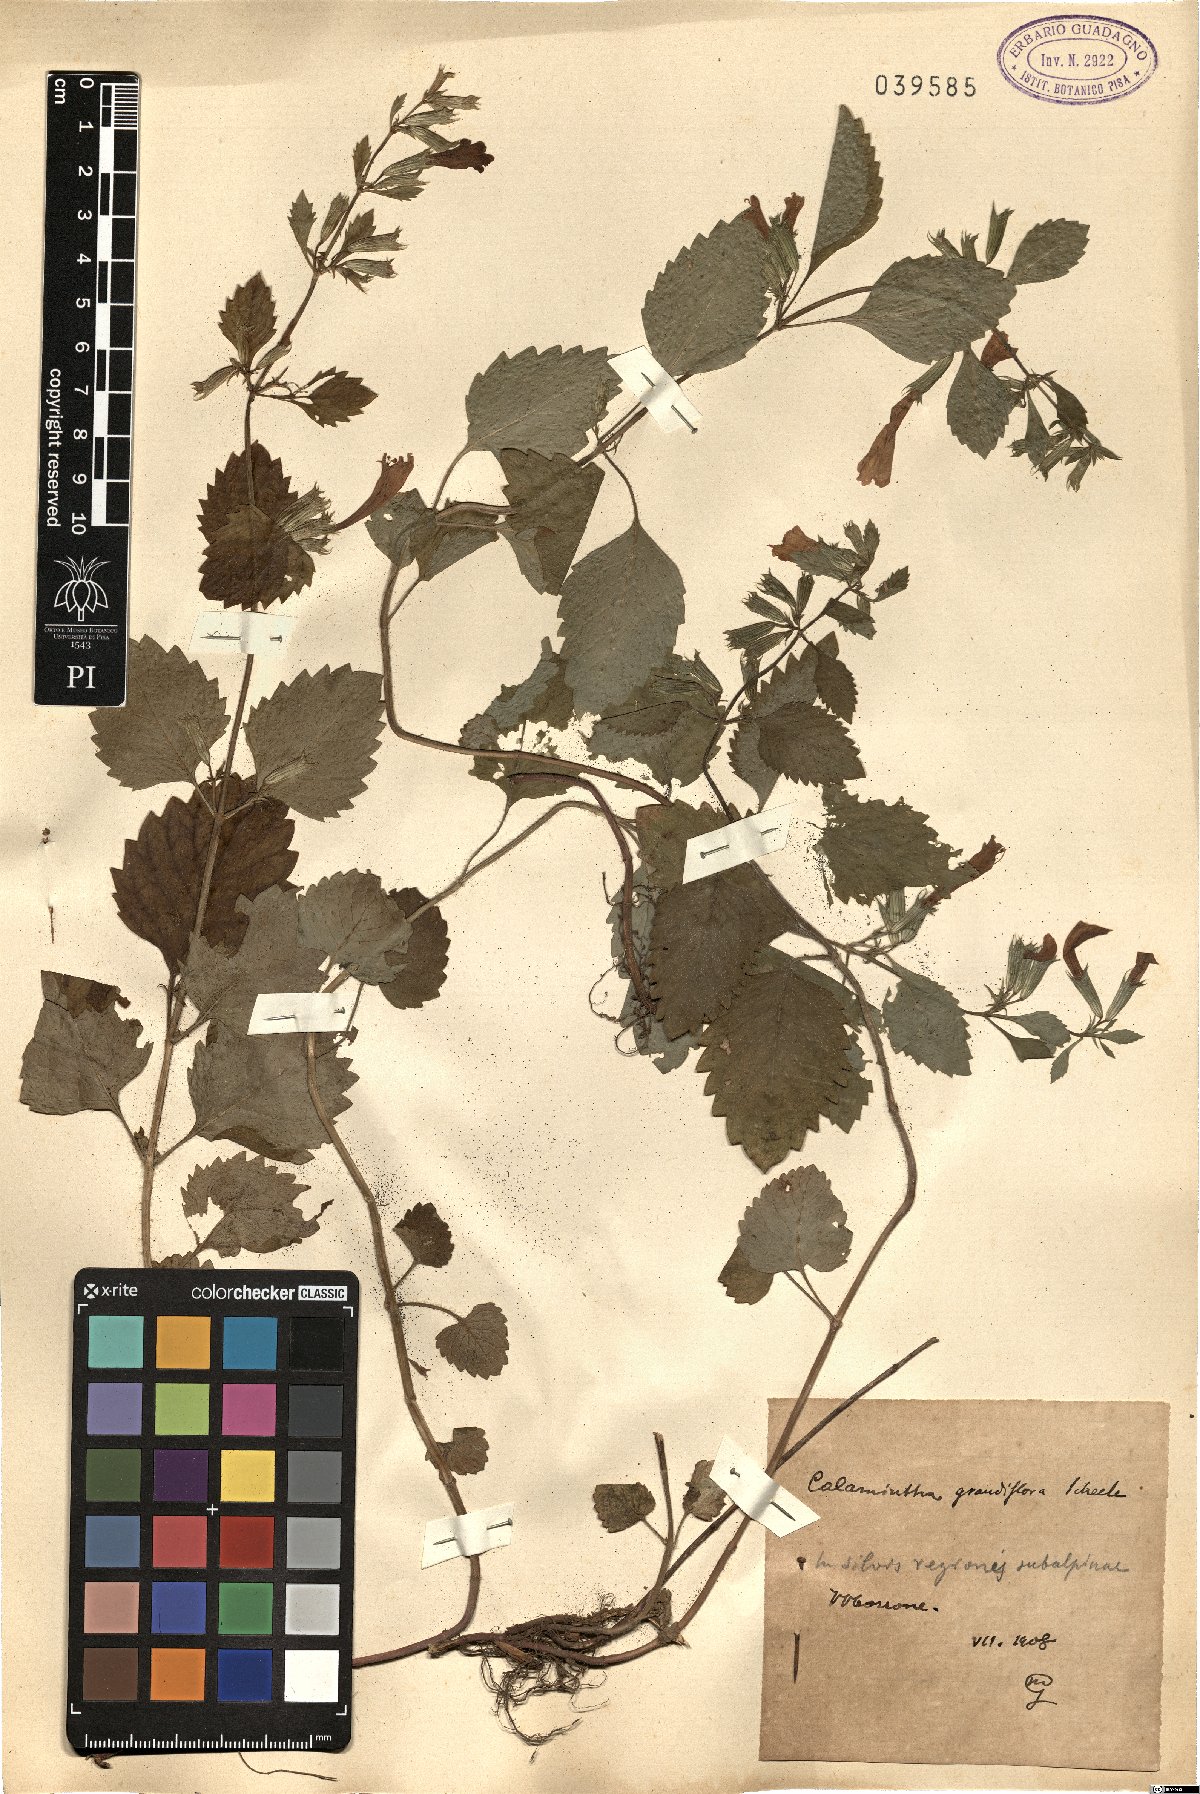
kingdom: Plantae
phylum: Tracheophyta
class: Magnoliopsida
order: Lamiales
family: Lamiaceae
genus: Clinopodium
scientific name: Clinopodium grandiflorum
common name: Greater calamint
